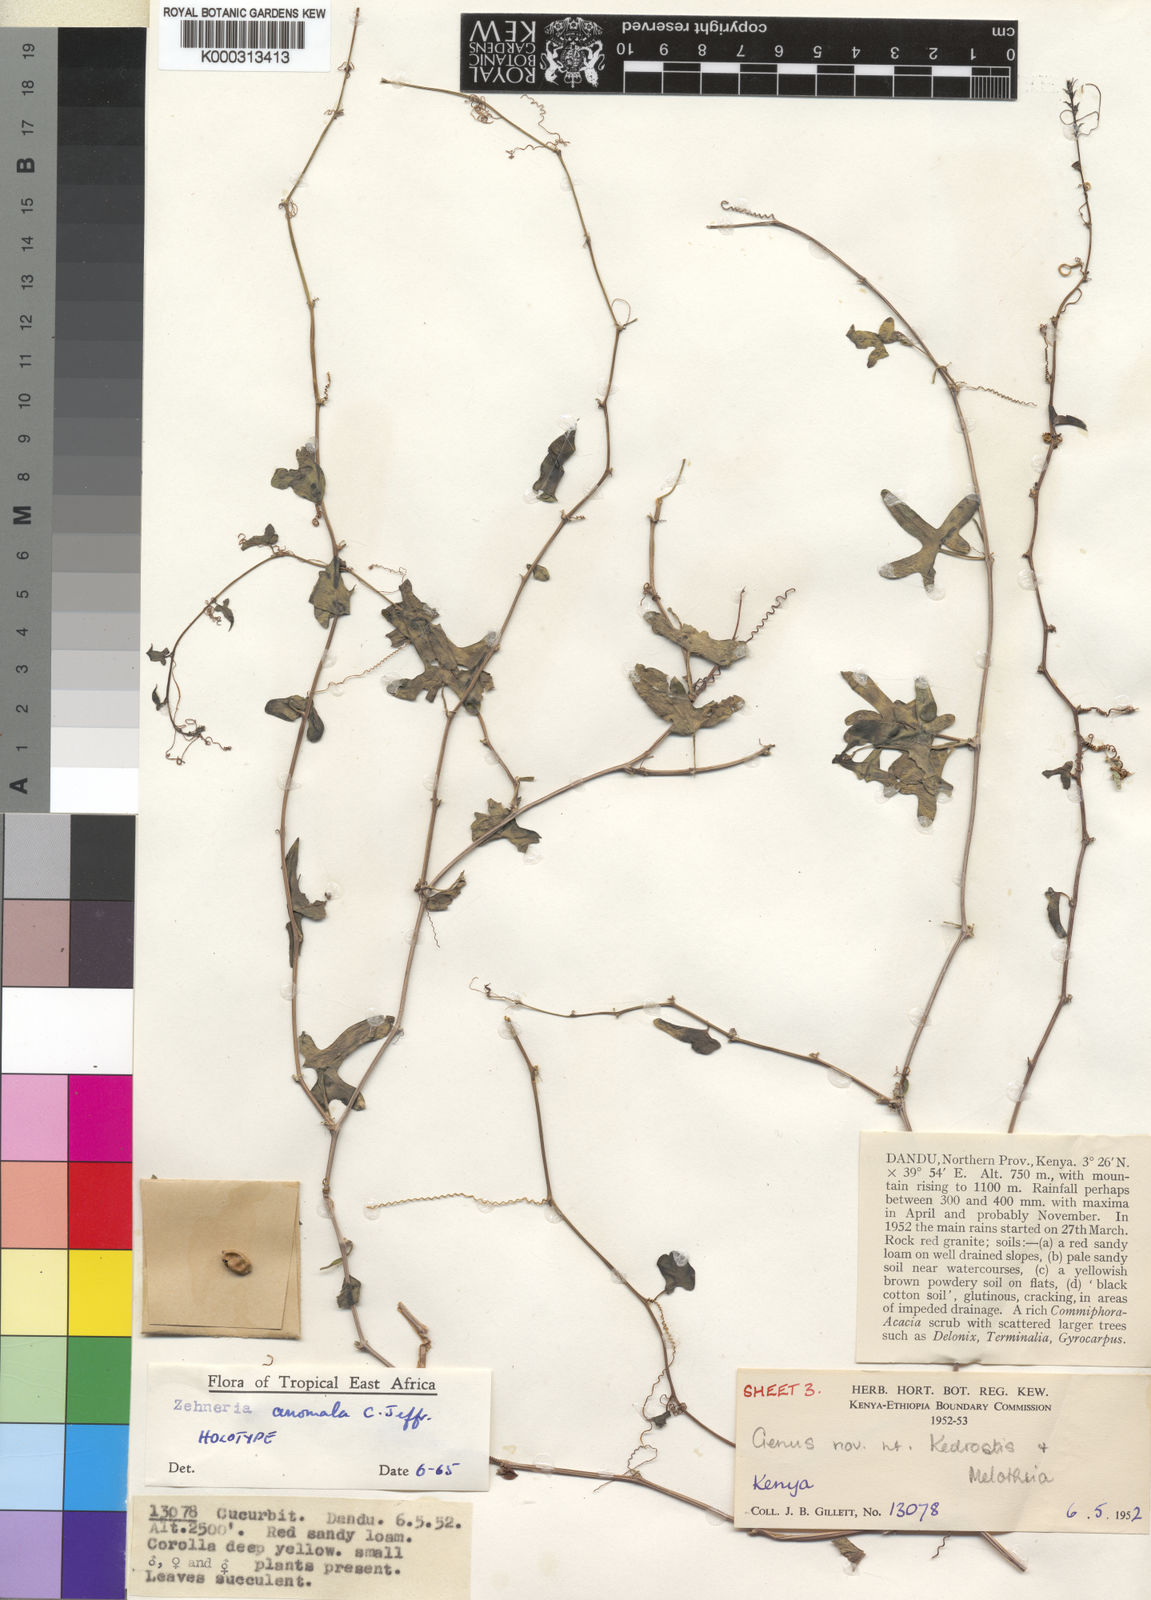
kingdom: Plantae
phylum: Tracheophyta
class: Magnoliopsida
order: Cucurbitales
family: Cucurbitaceae
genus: Zehneria
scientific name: Zehneria anomala
